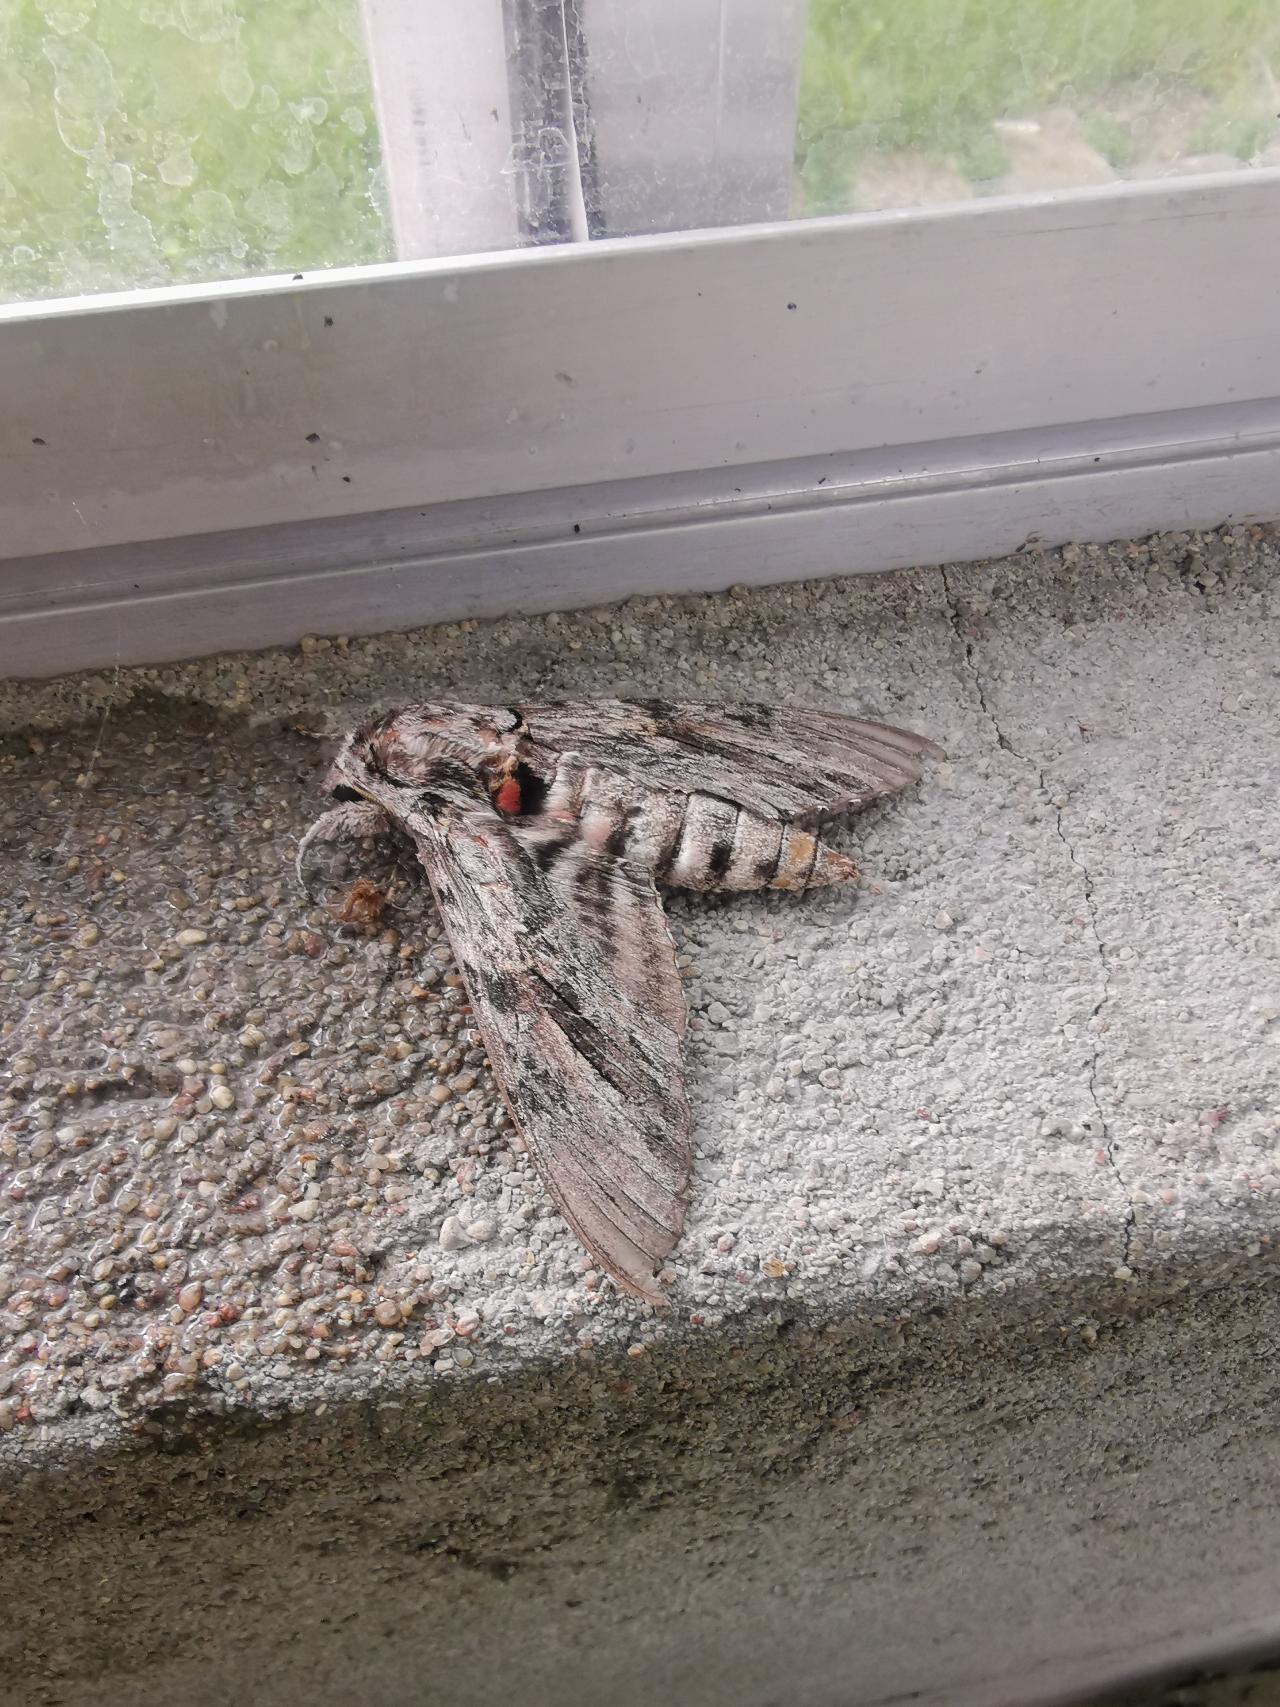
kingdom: Animalia
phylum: Arthropoda
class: Insecta
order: Lepidoptera
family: Sphingidae
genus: Agrius
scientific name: Agrius convolvuli
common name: Snerlesværmer
